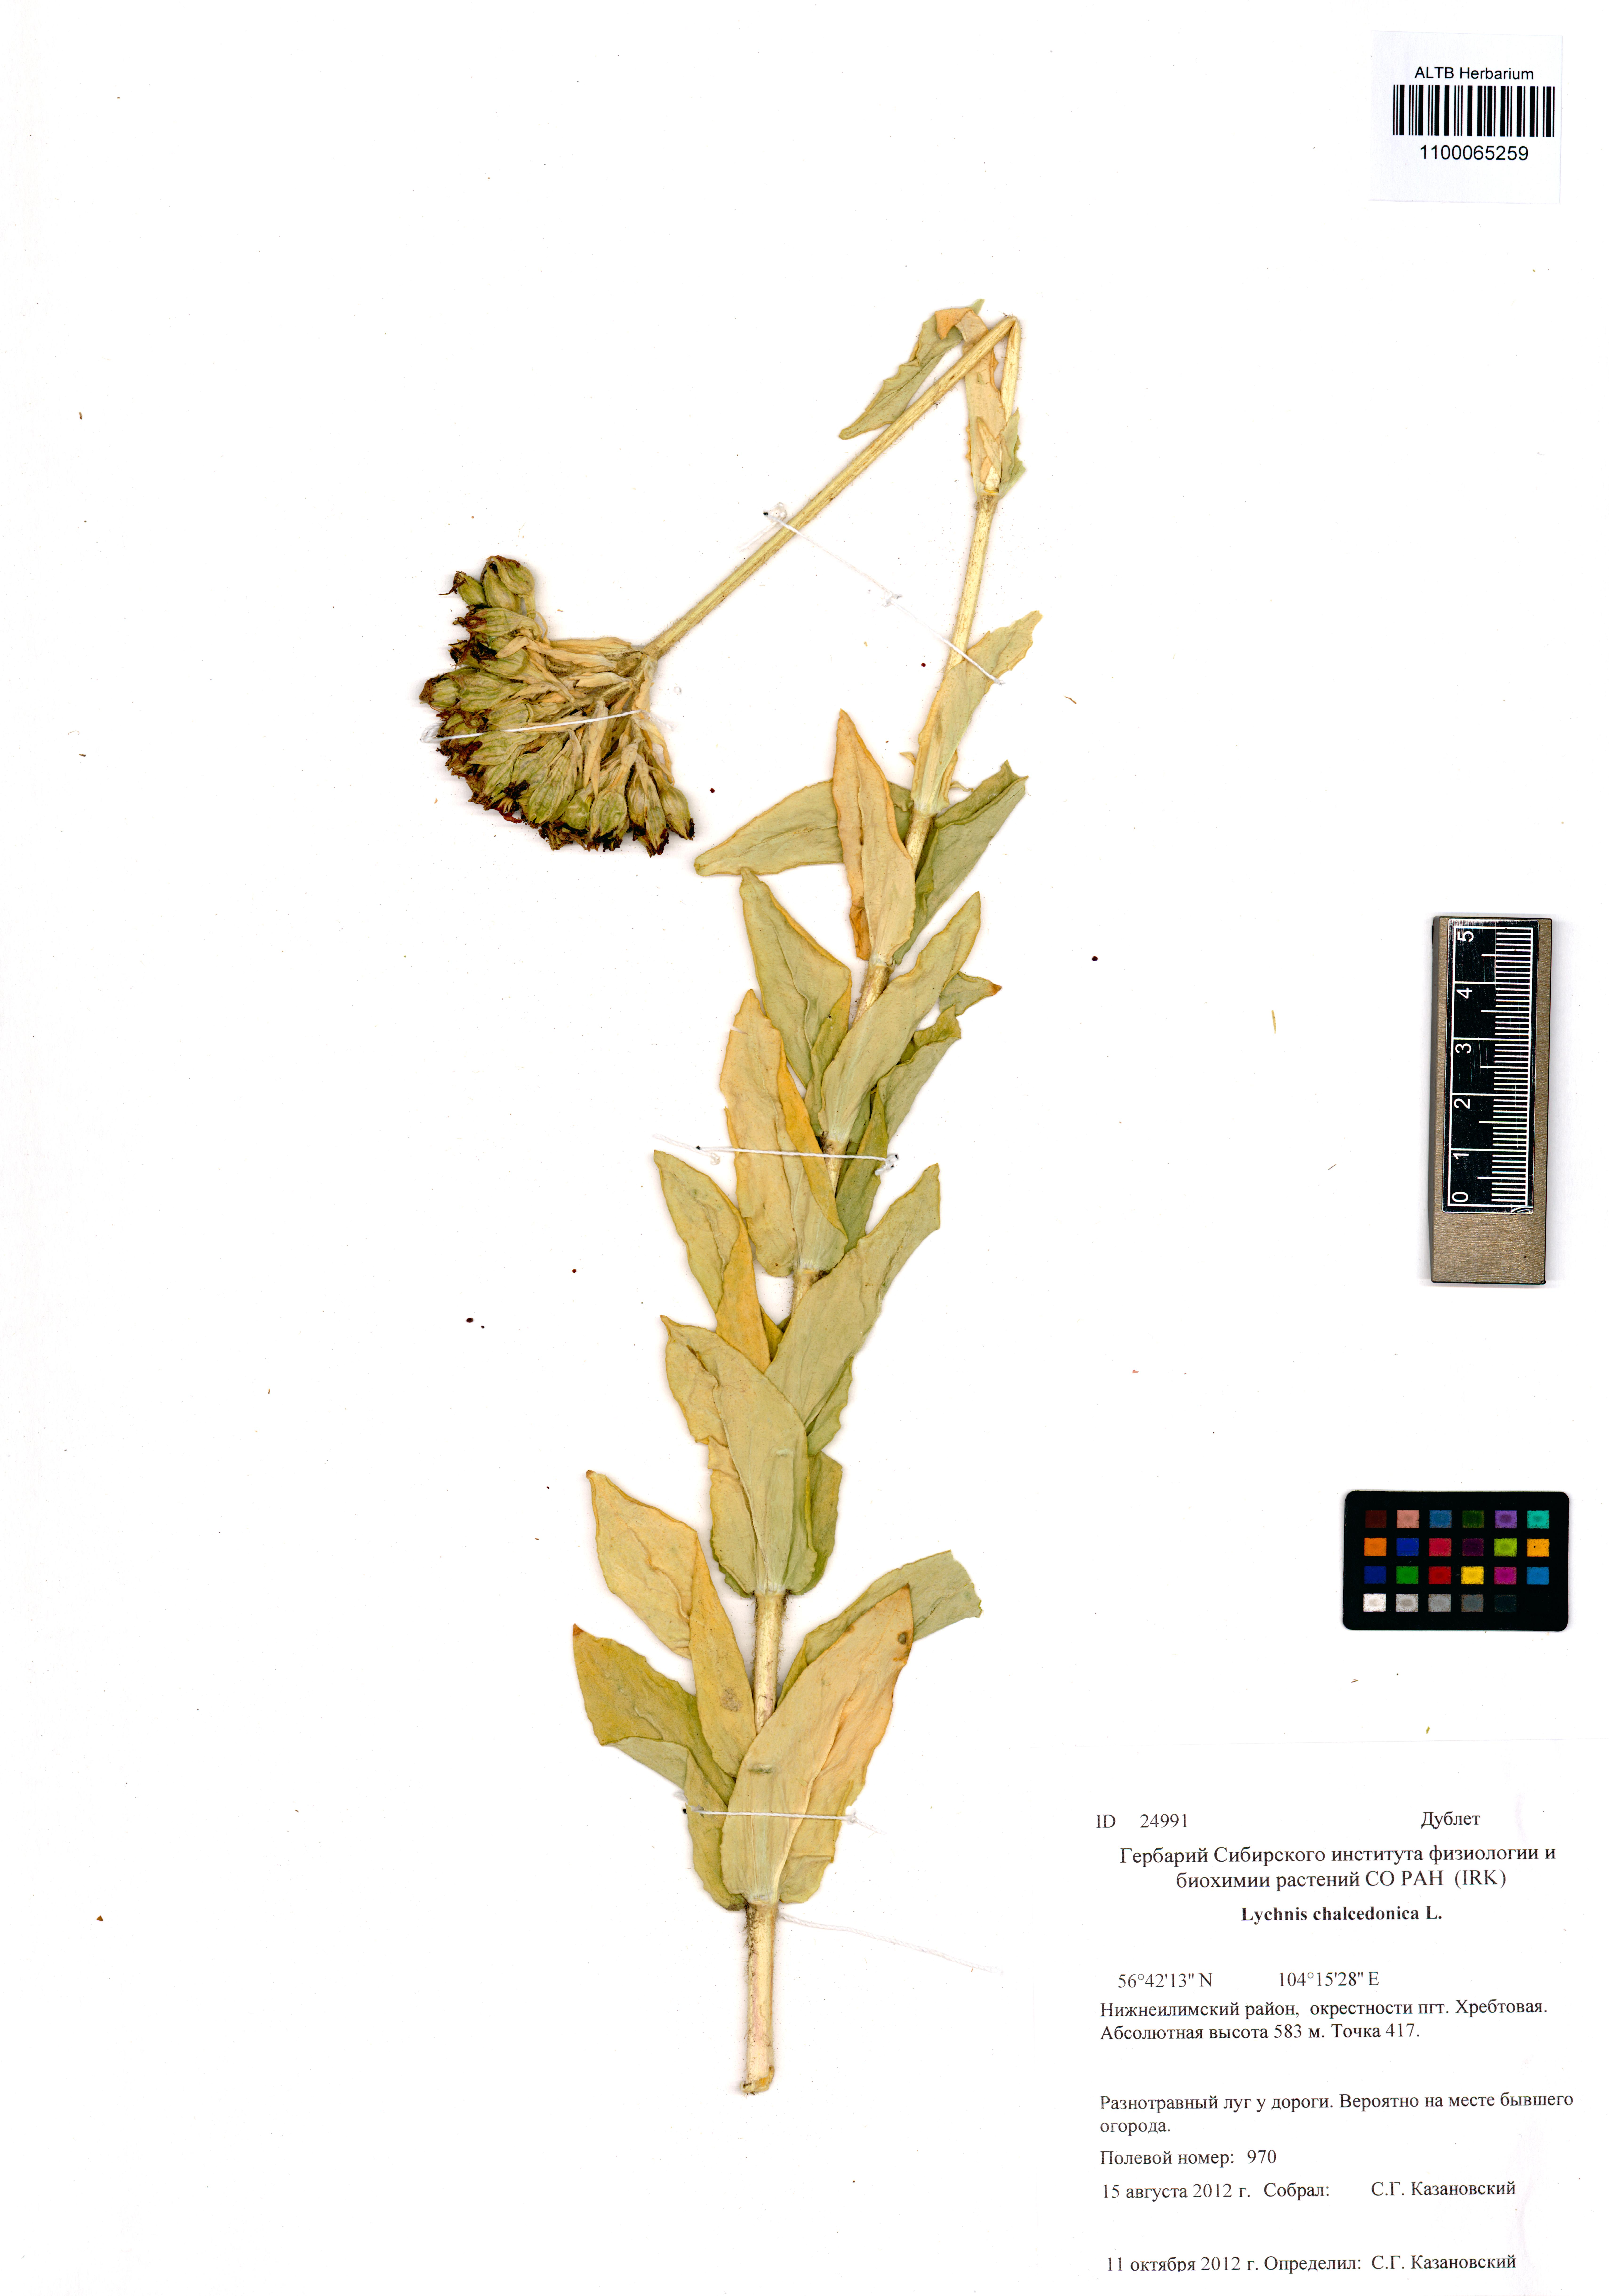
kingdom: Plantae
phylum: Tracheophyta
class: Magnoliopsida
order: Caryophyllales
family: Caryophyllaceae
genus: Silene
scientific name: Silene chalcedonica
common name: Maltese-cross
